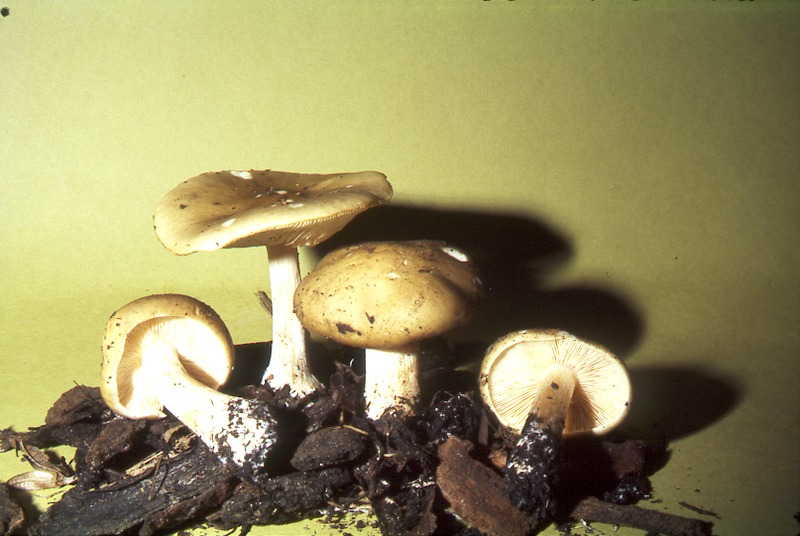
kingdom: Fungi
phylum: Basidiomycota
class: Agaricomycetes
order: Agaricales
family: Tricholomataceae
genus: Melanoleuca
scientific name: Melanoleuca cognata
